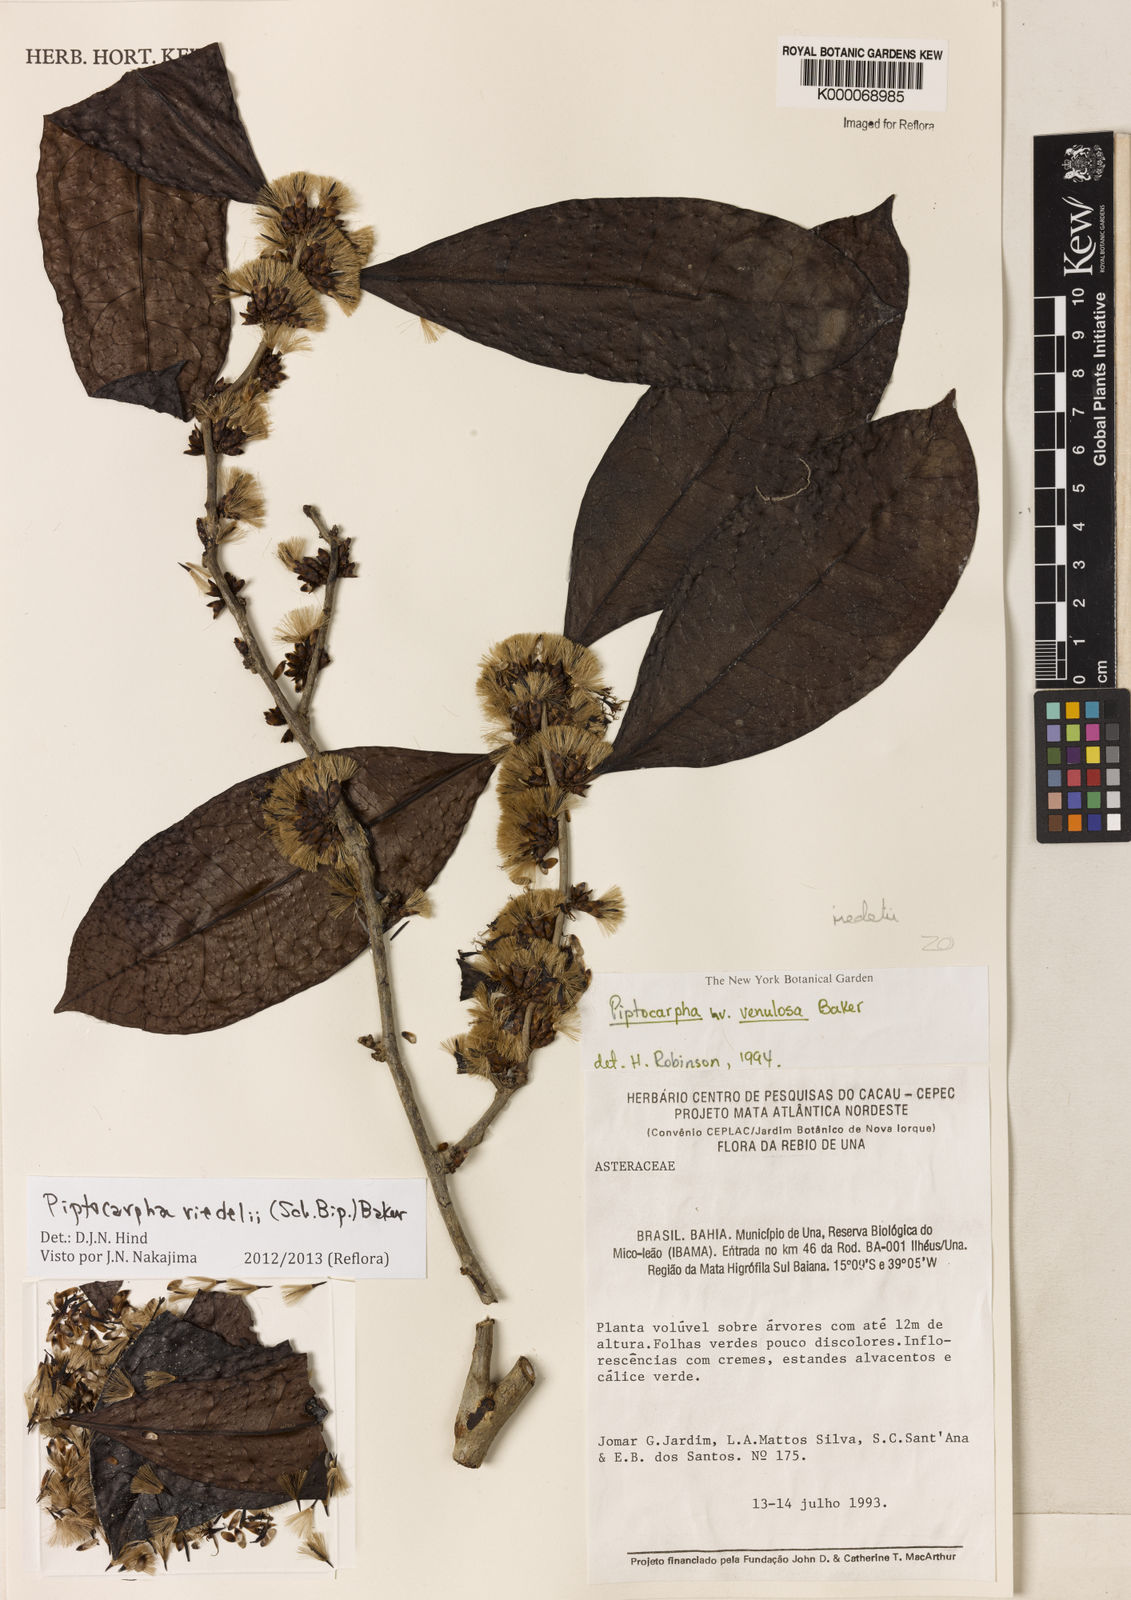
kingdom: Plantae
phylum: Tracheophyta
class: Magnoliopsida
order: Asterales
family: Asteraceae
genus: Piptocarpha
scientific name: Piptocarpha venulosa
